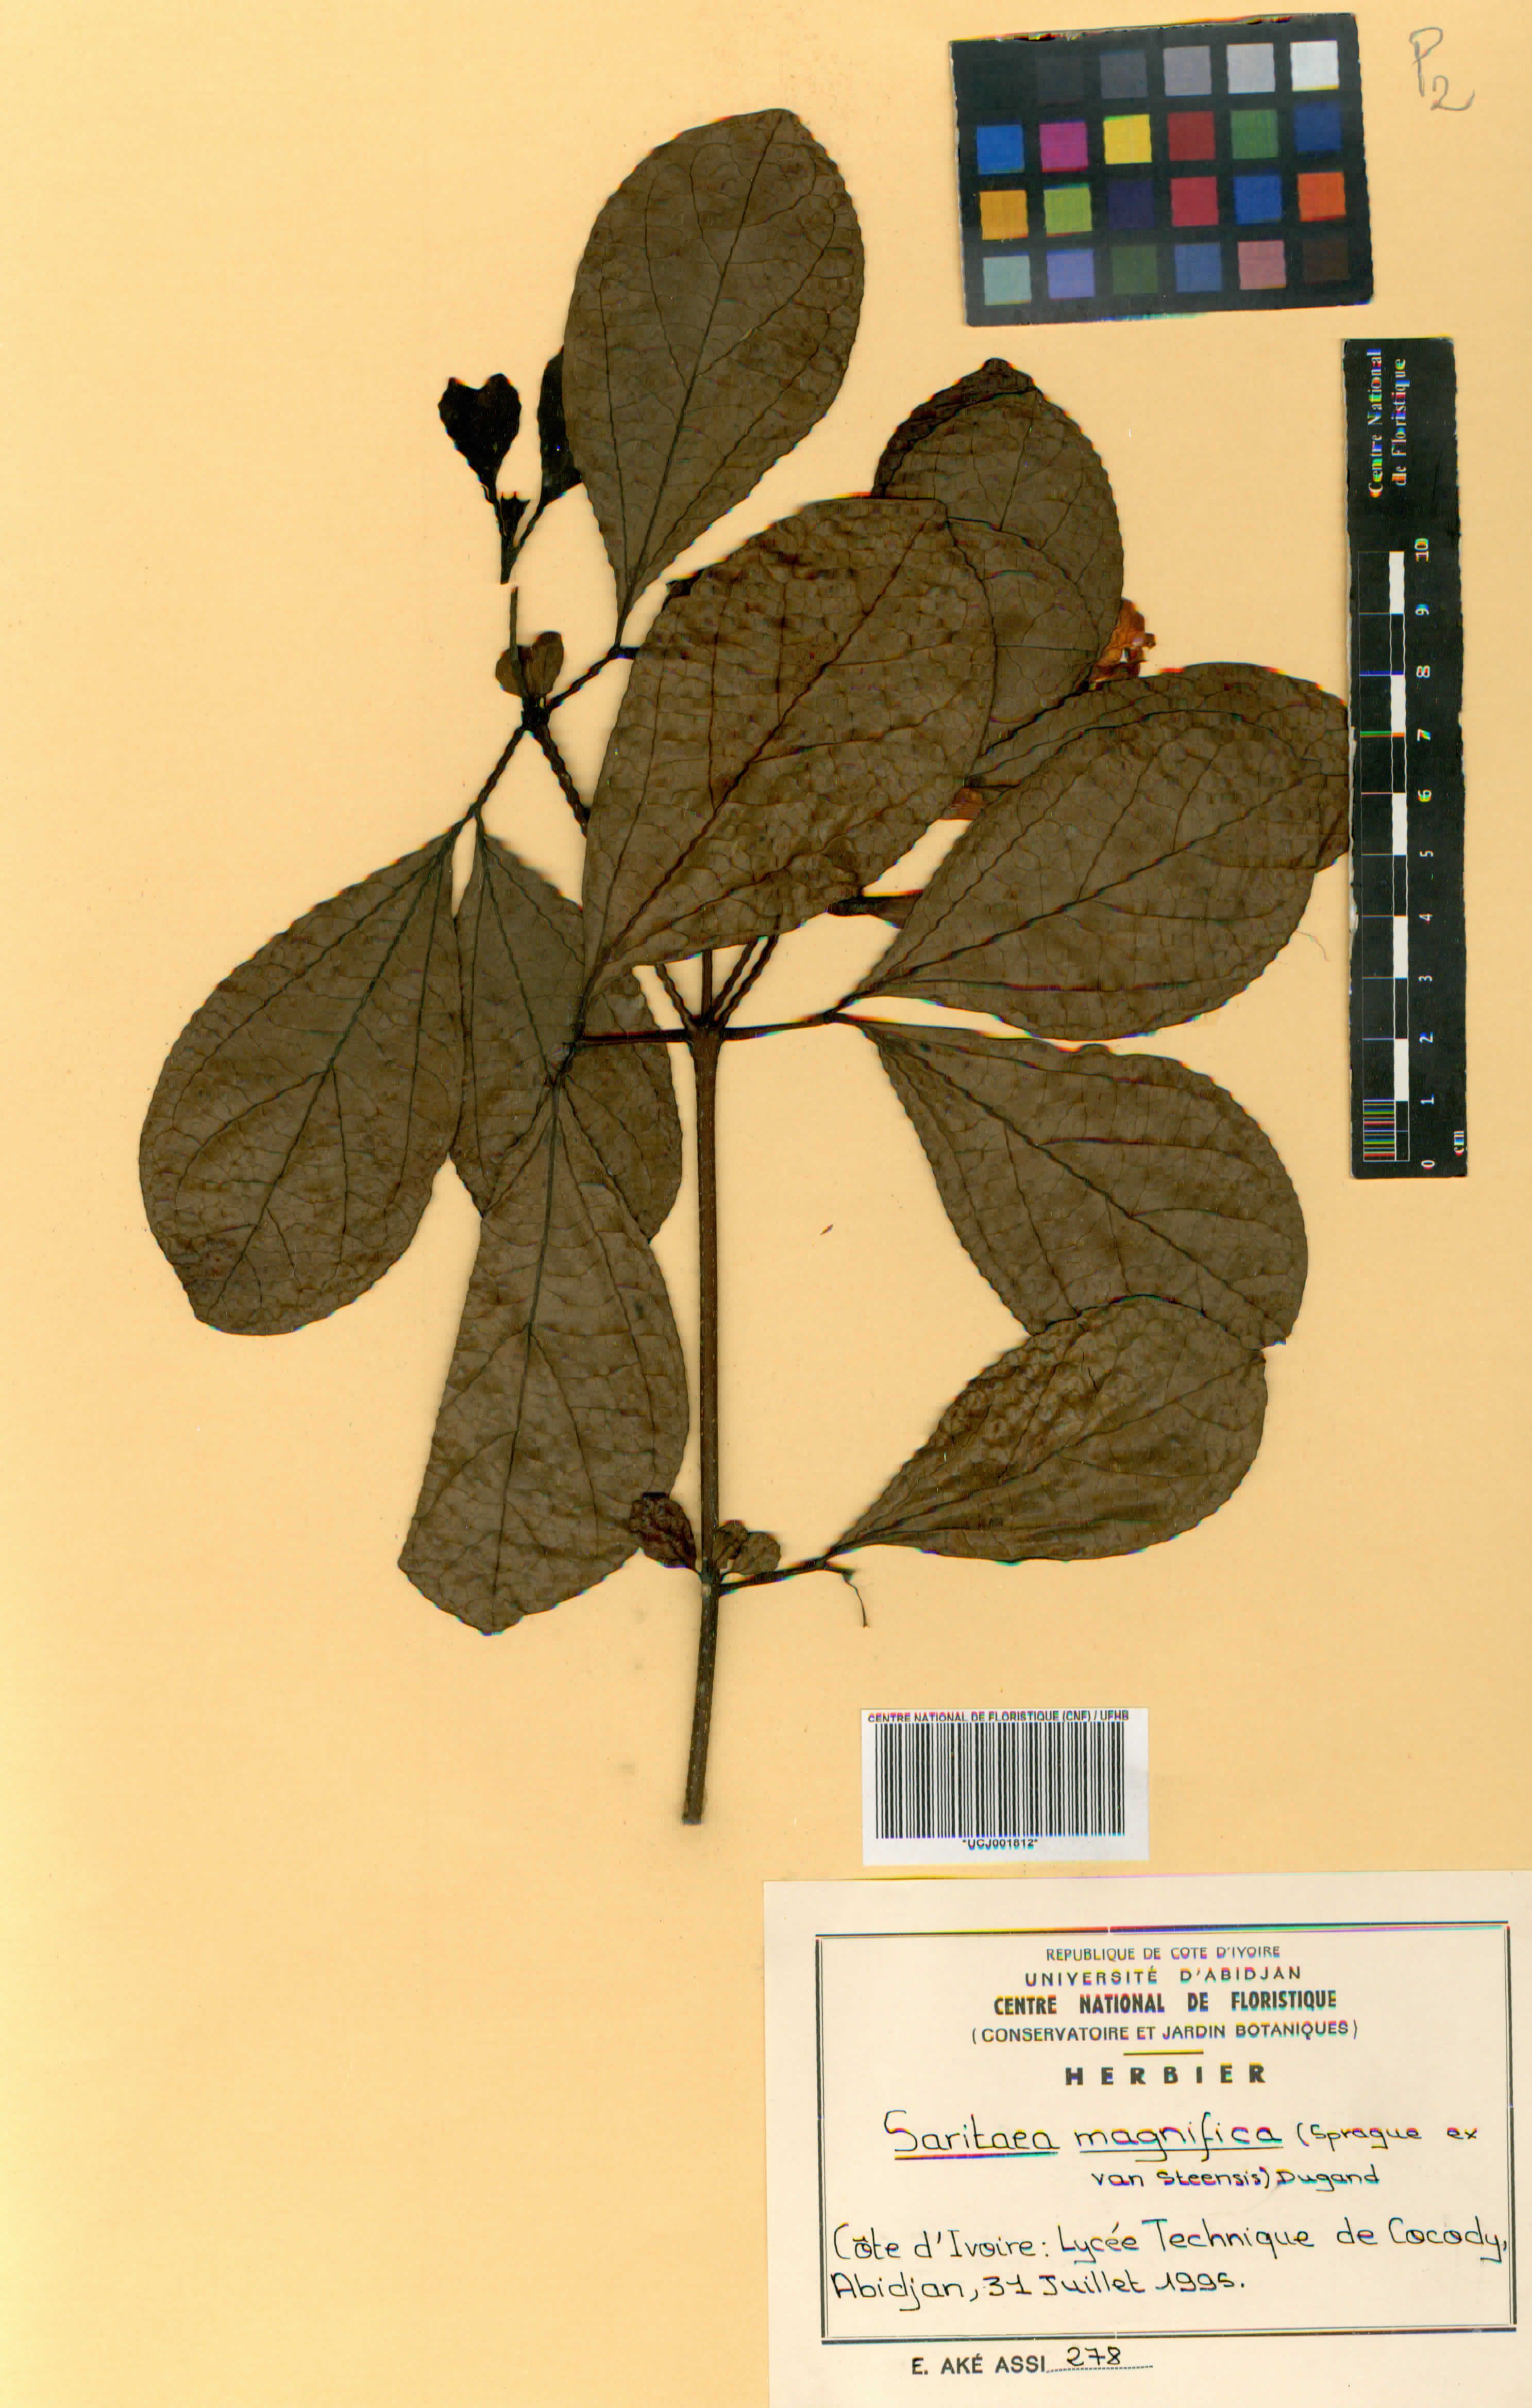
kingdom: Plantae
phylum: Tracheophyta
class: Magnoliopsida
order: Lamiales
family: Bignoniaceae
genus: Bignonia
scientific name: Bignonia magnifica
